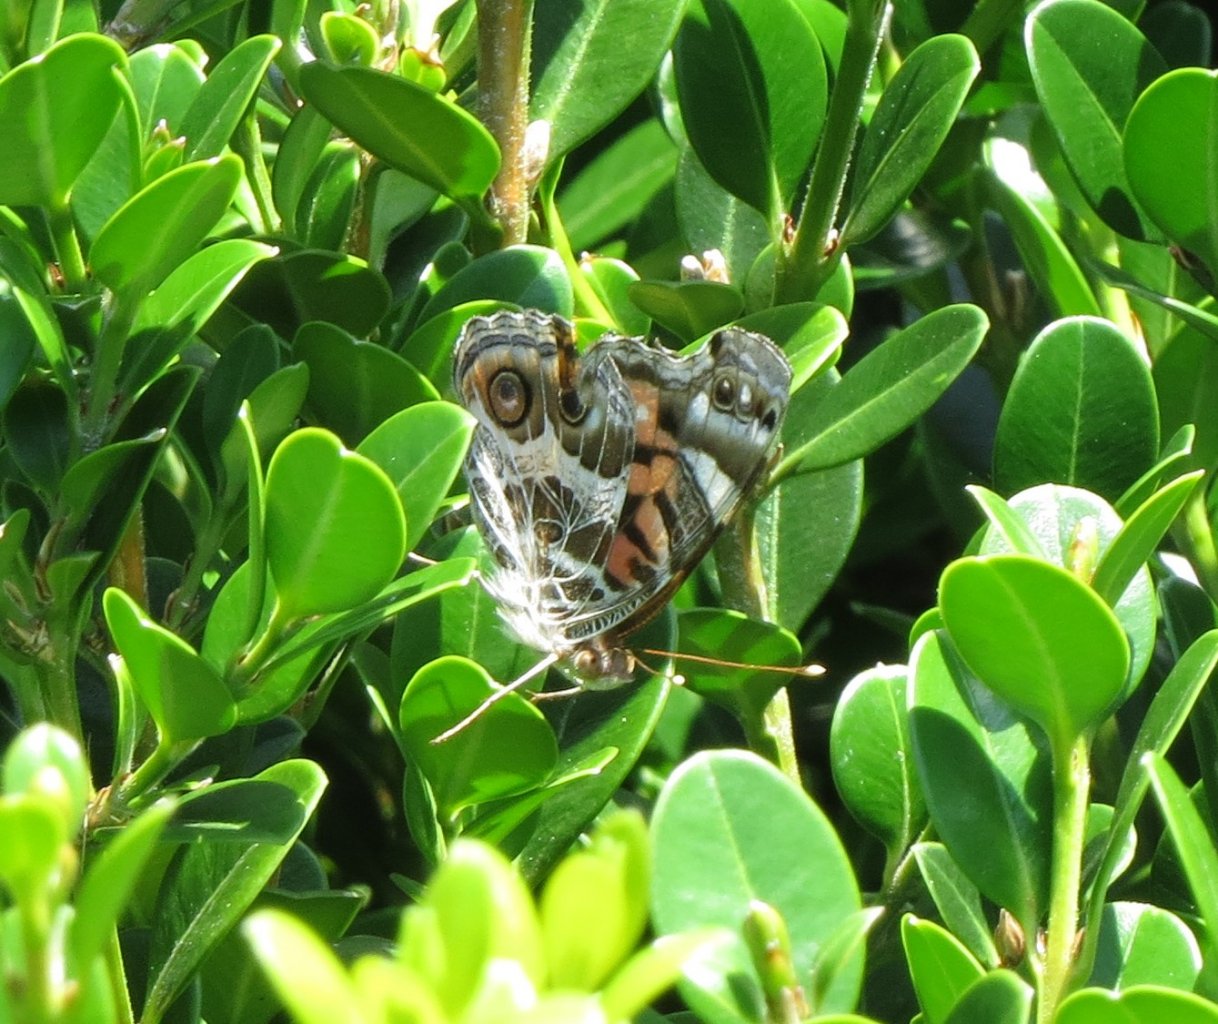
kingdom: Animalia
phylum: Arthropoda
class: Insecta
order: Lepidoptera
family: Nymphalidae
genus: Vanessa
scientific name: Vanessa virginiensis
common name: American Lady
